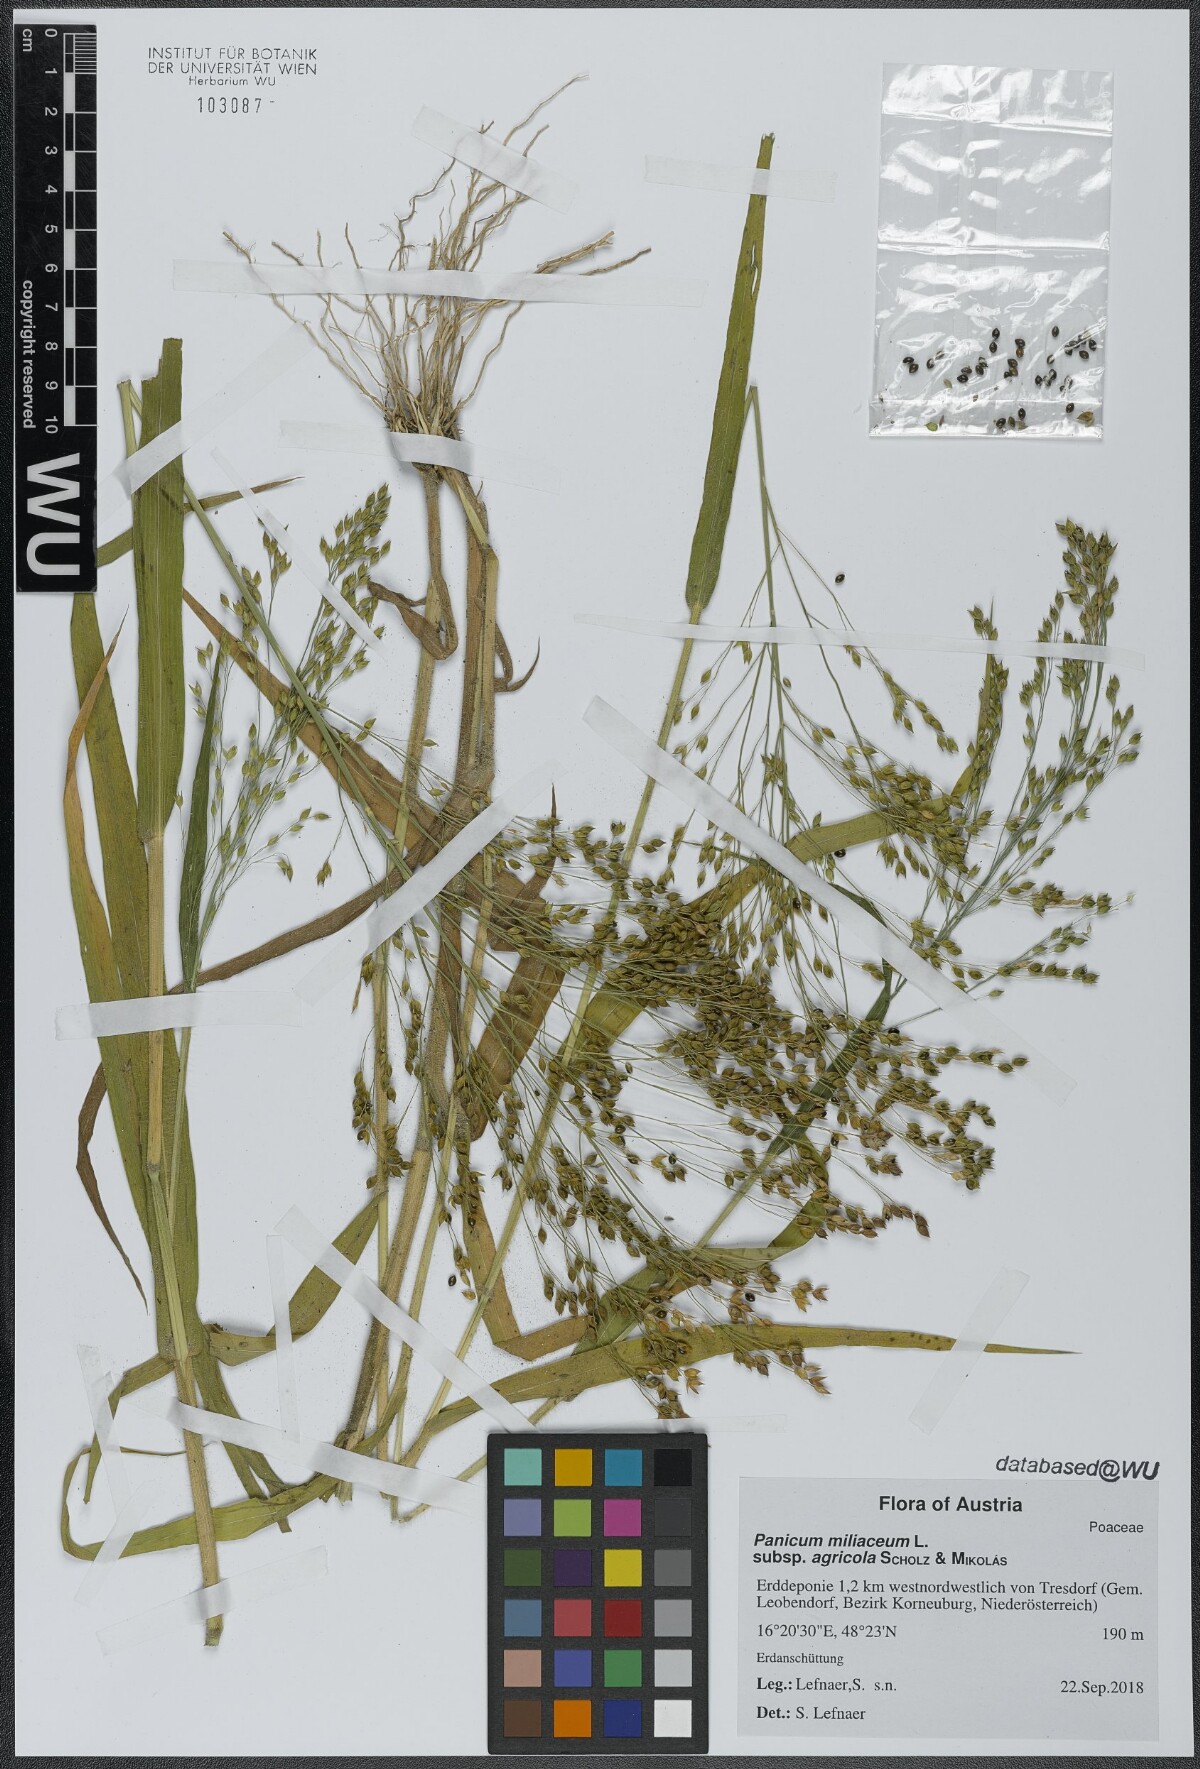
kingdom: Plantae
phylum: Tracheophyta
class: Liliopsida
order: Poales
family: Poaceae
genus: Panicum
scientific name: Panicum miliaceum
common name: Common millet
